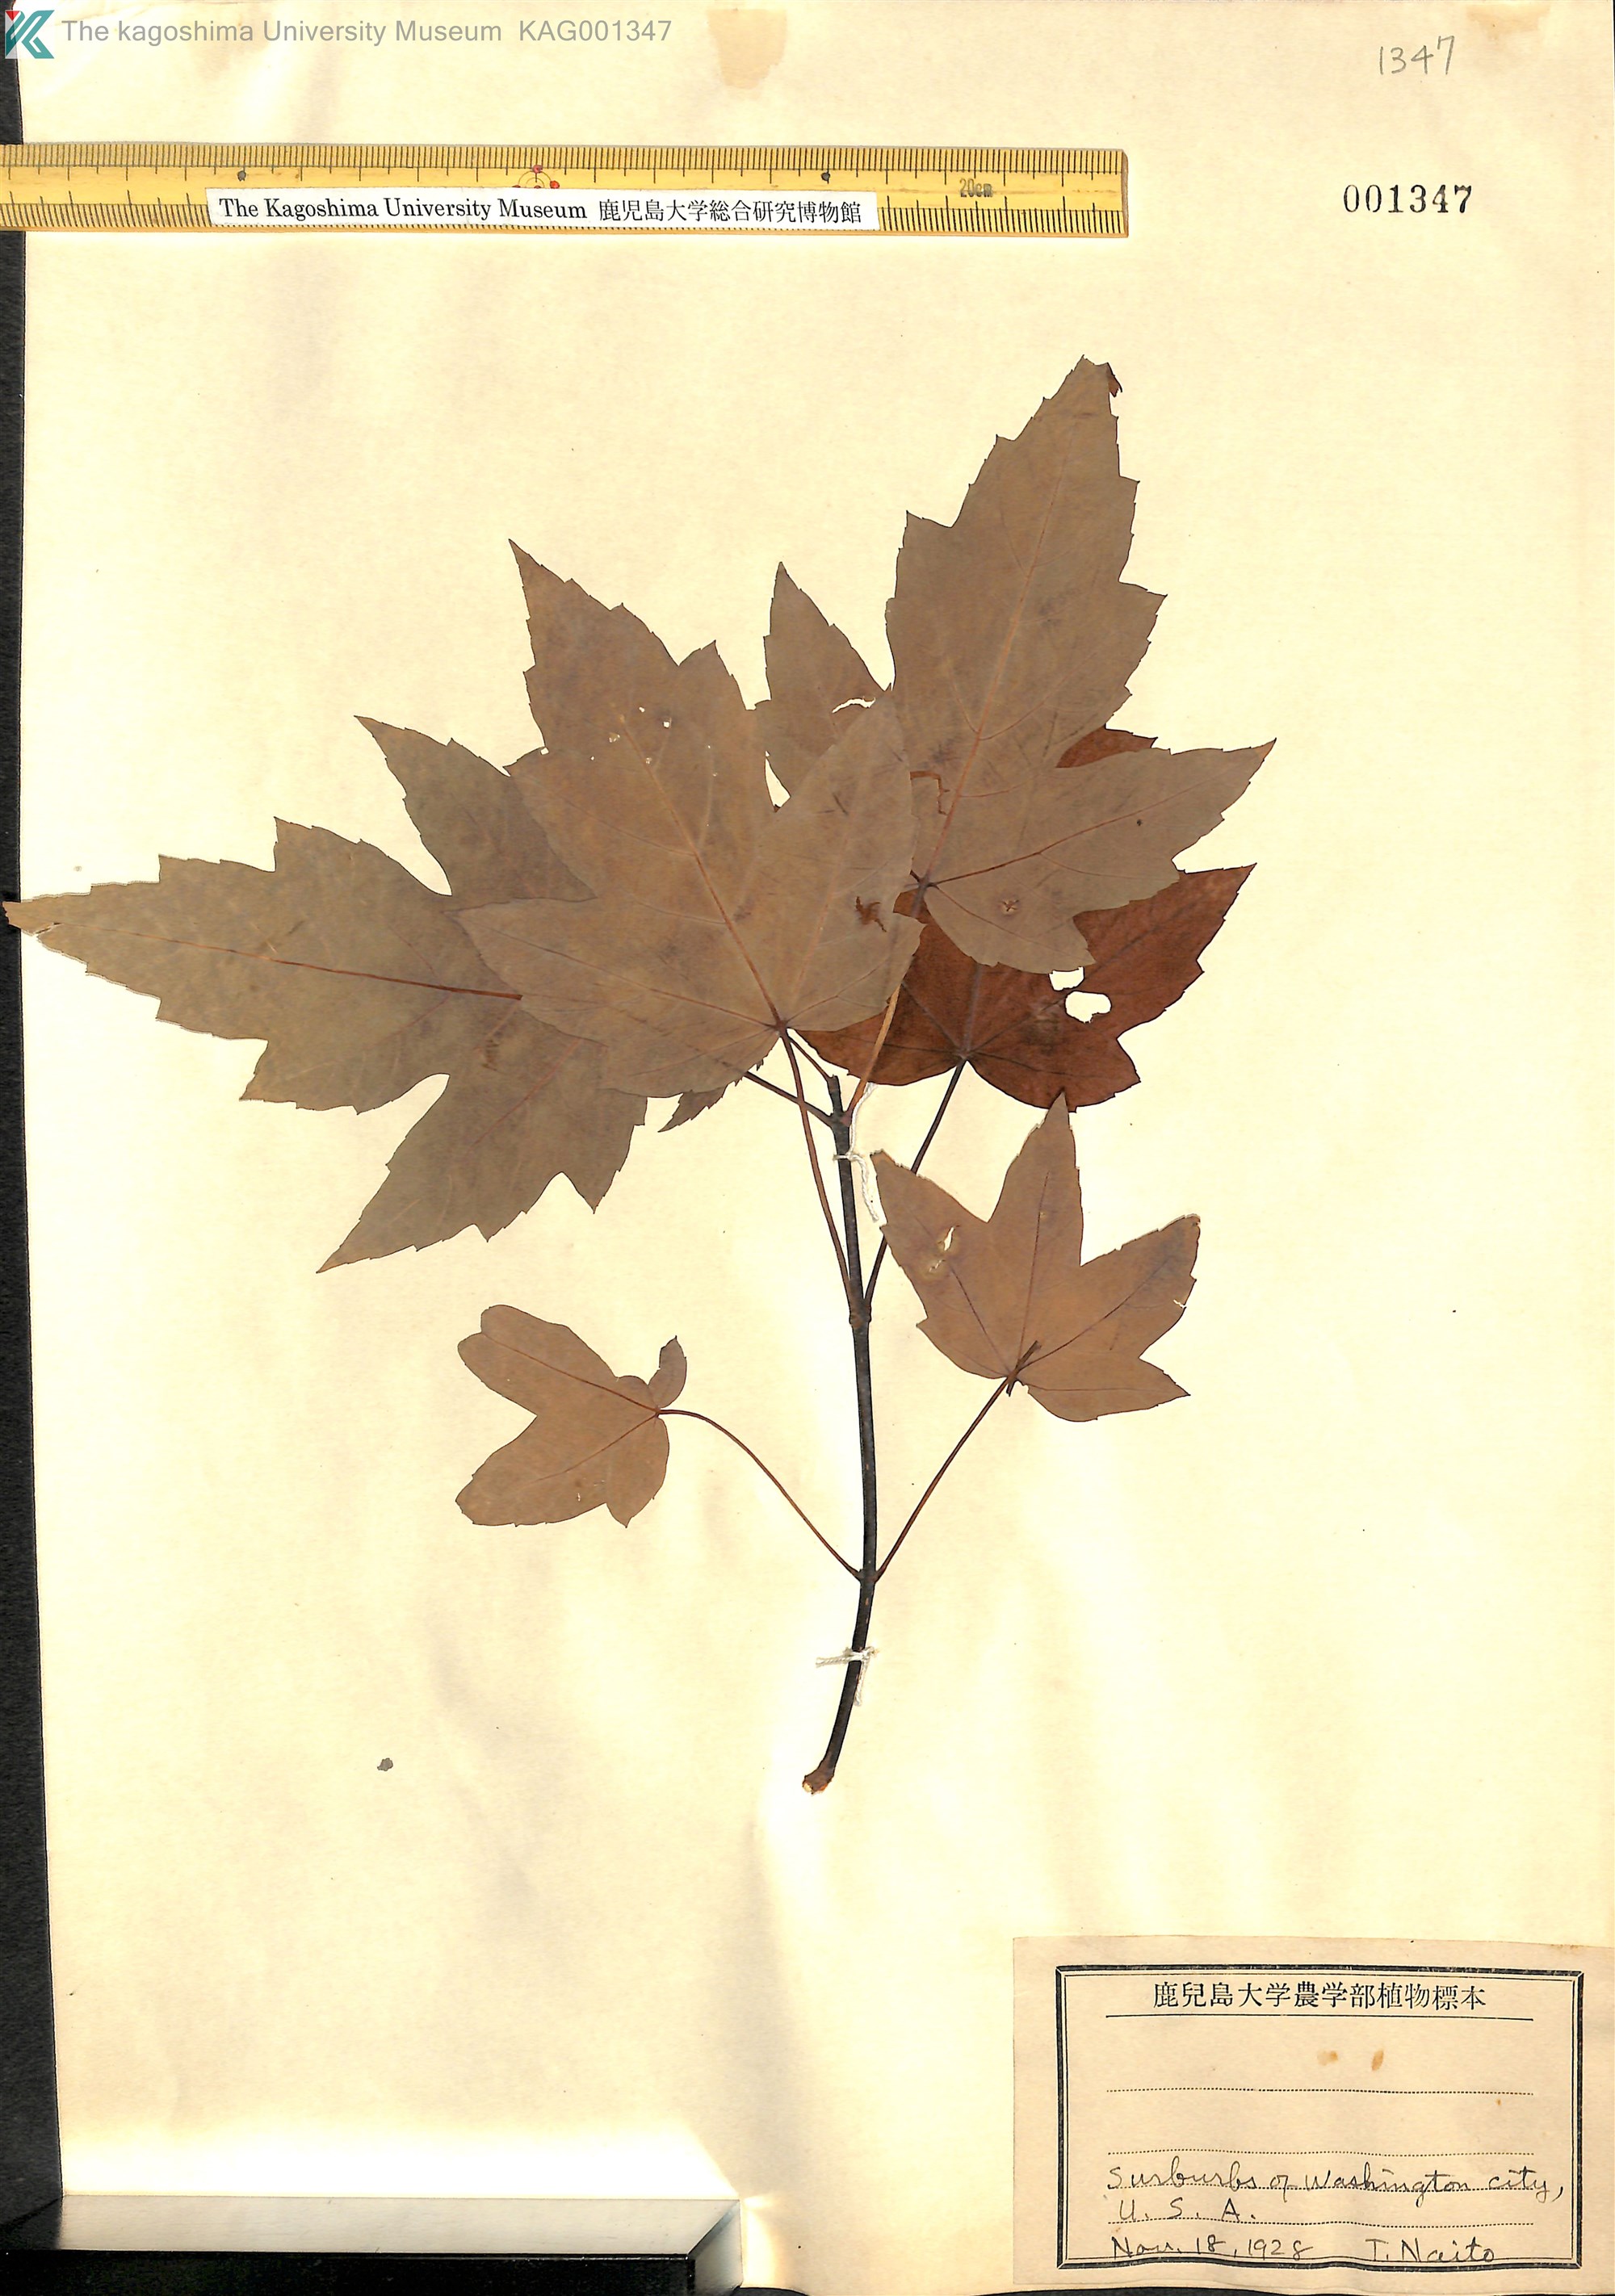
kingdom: Plantae
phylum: Tracheophyta
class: Magnoliopsida
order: Sapindales
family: Sapindaceae
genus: Acer
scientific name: Acer
